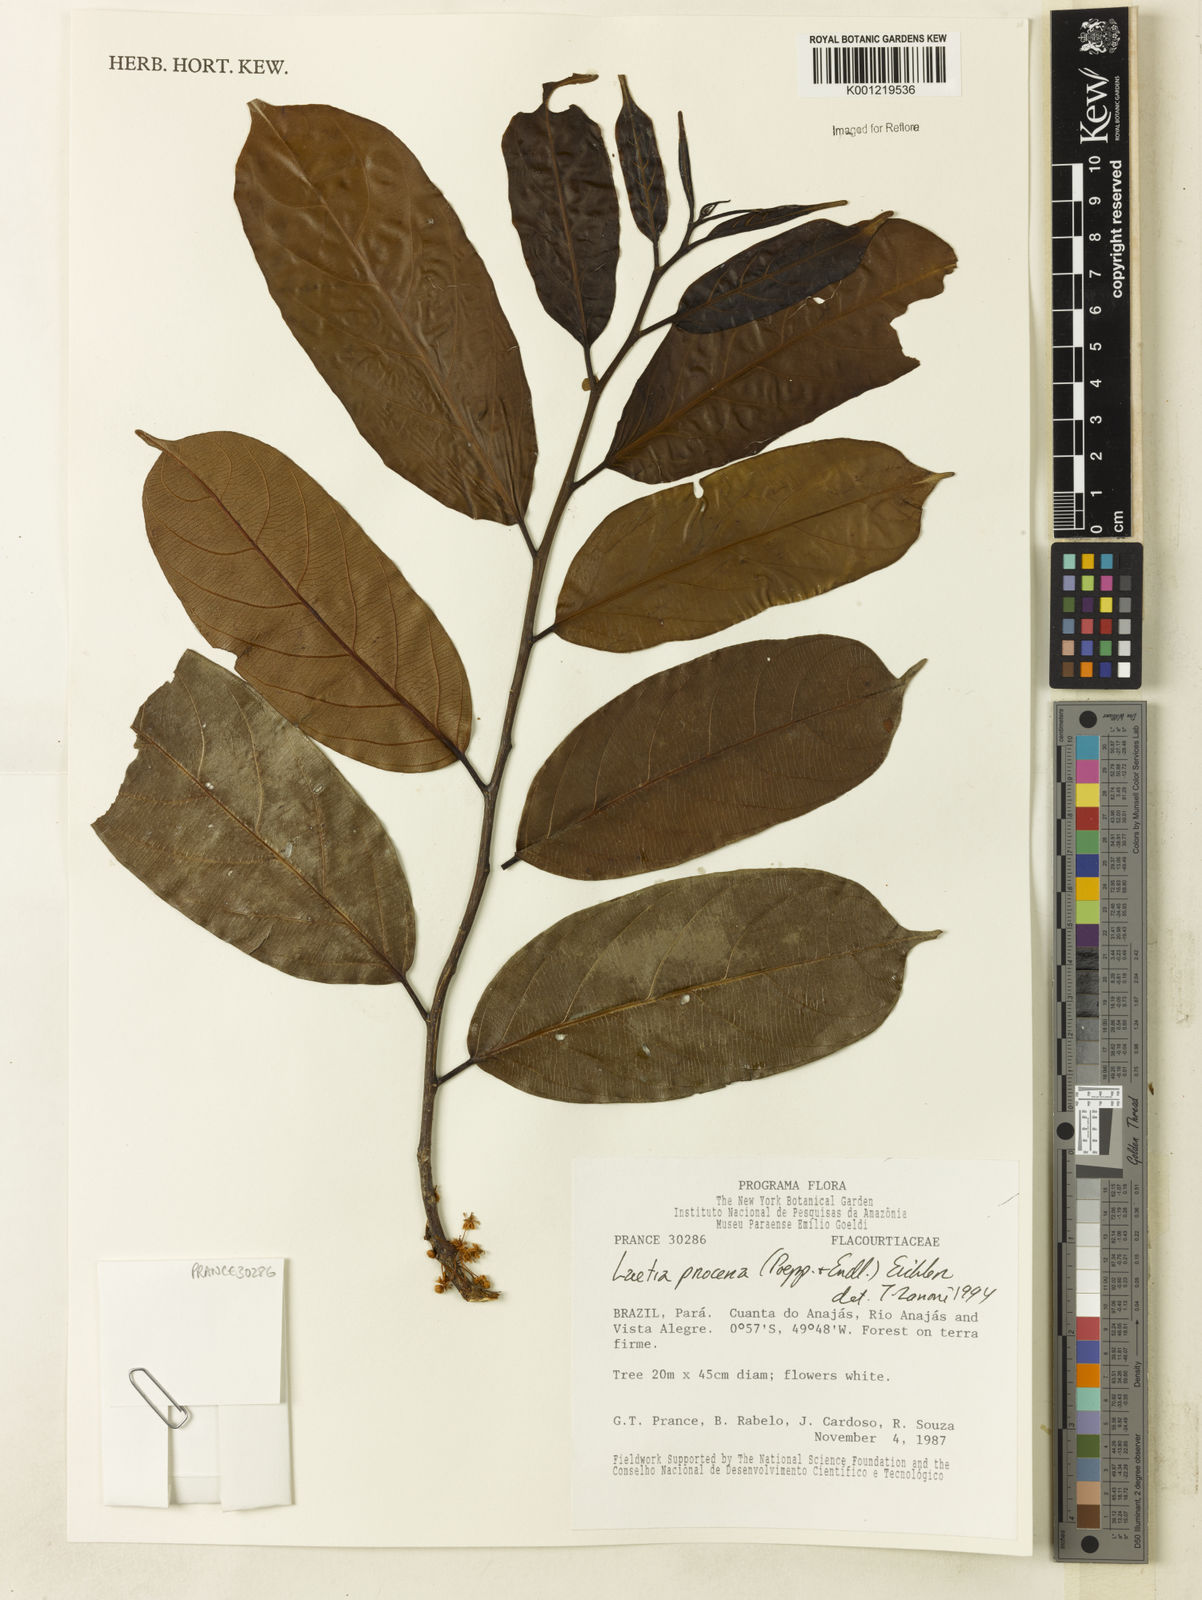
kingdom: Plantae
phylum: Tracheophyta
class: Magnoliopsida
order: Malpighiales
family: Salicaceae
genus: Casearia
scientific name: Casearia bicolor
